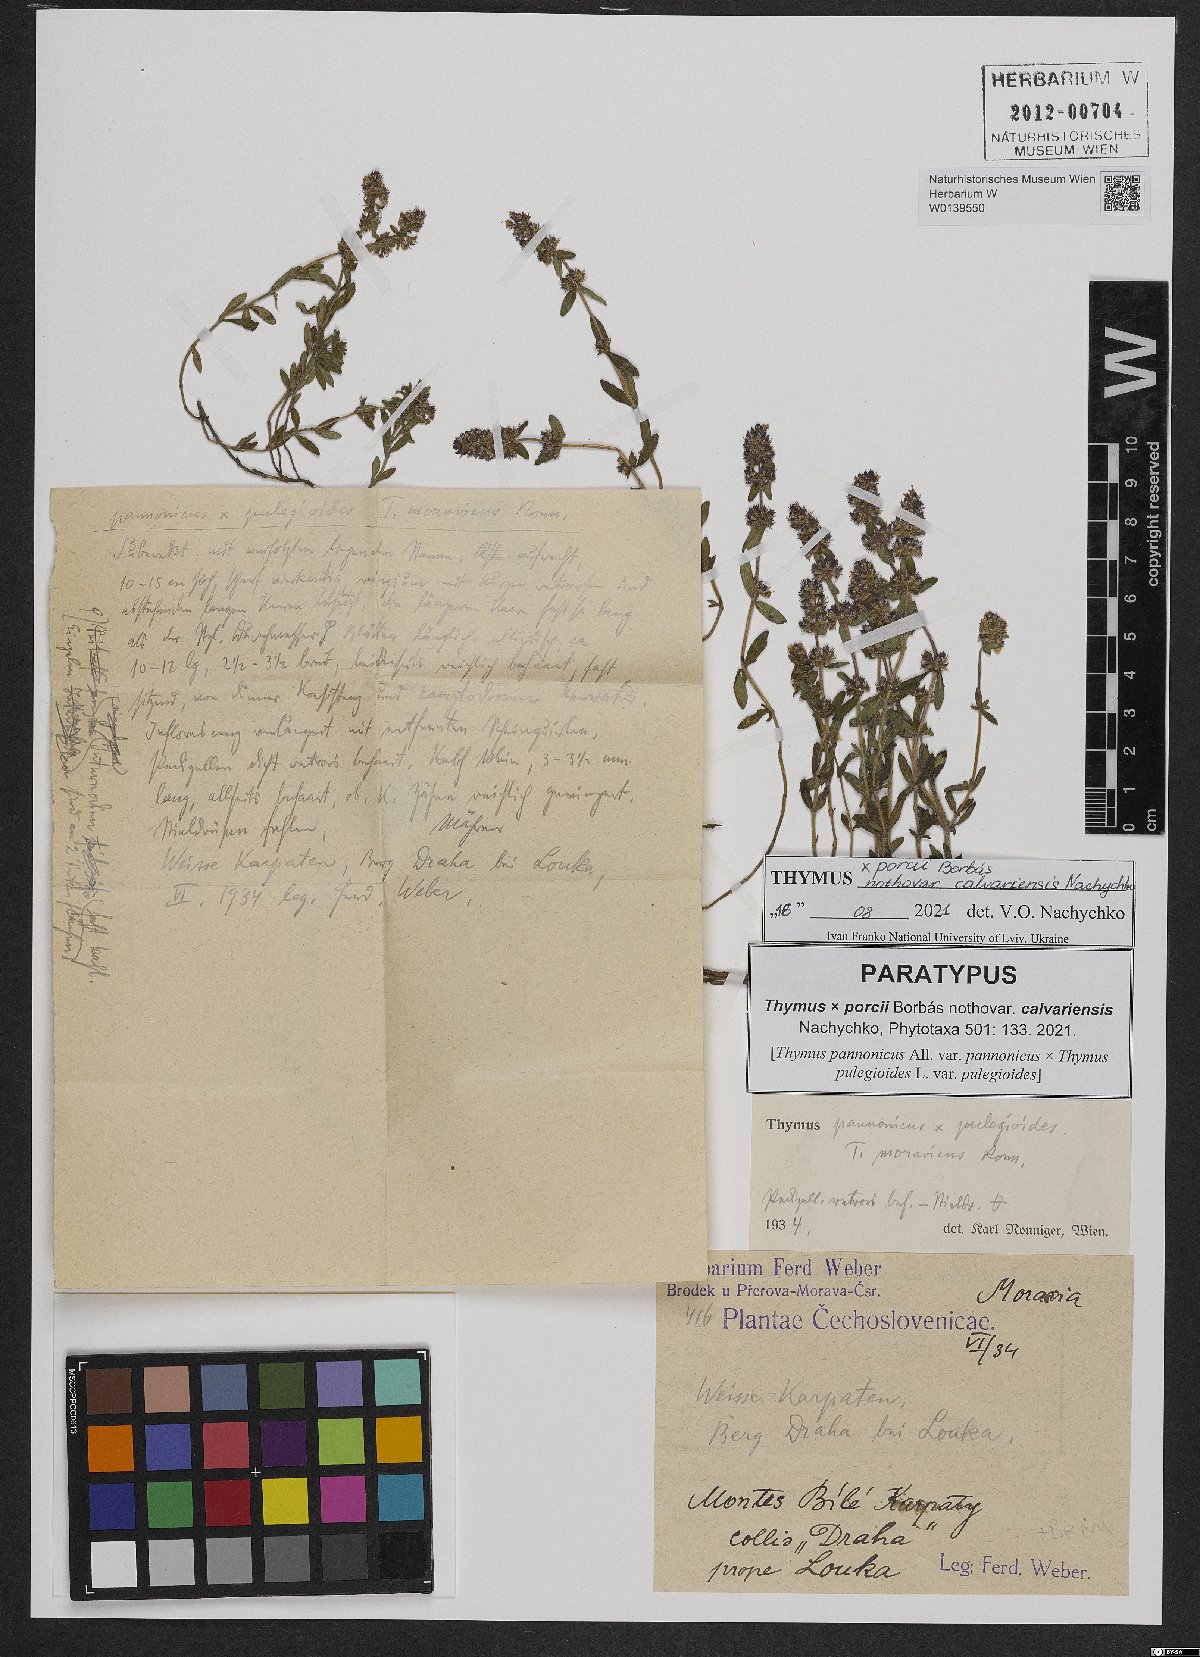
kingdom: Plantae
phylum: Tracheophyta
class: Magnoliopsida
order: Lamiales
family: Lamiaceae
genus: Thymus
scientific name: Thymus porcii
